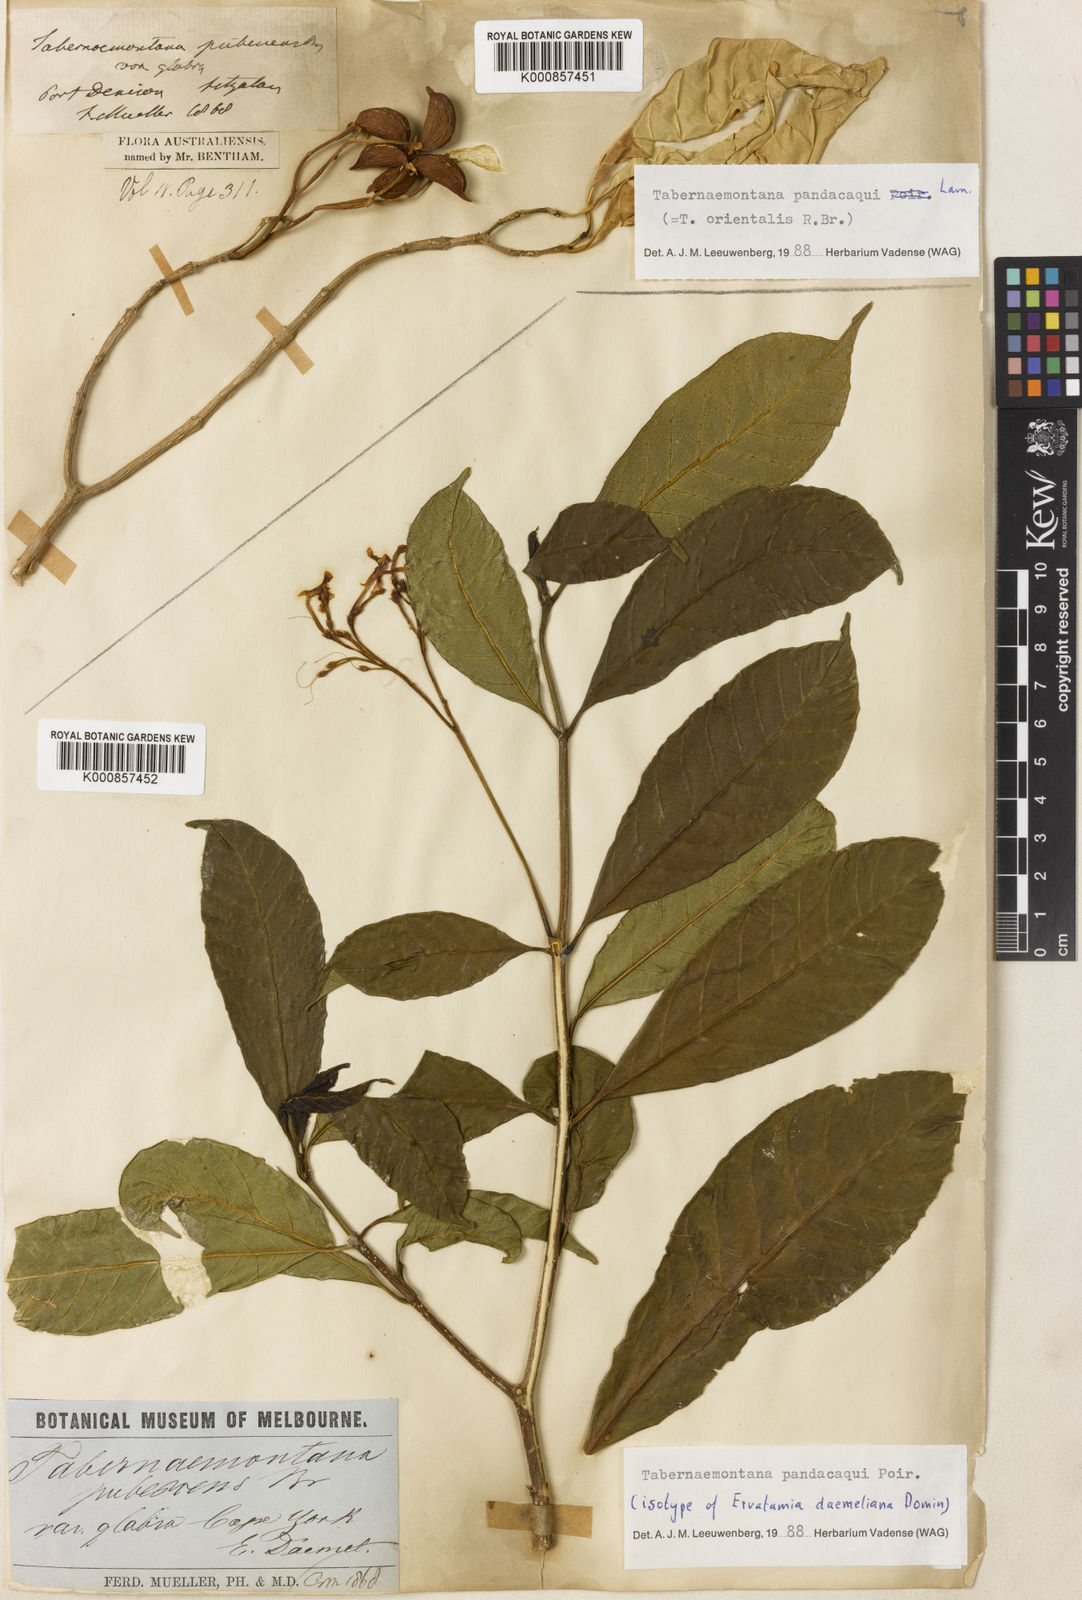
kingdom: Plantae
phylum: Tracheophyta
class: Magnoliopsida
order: Gentianales
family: Apocynaceae
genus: Tabernaemontana
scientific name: Tabernaemontana
